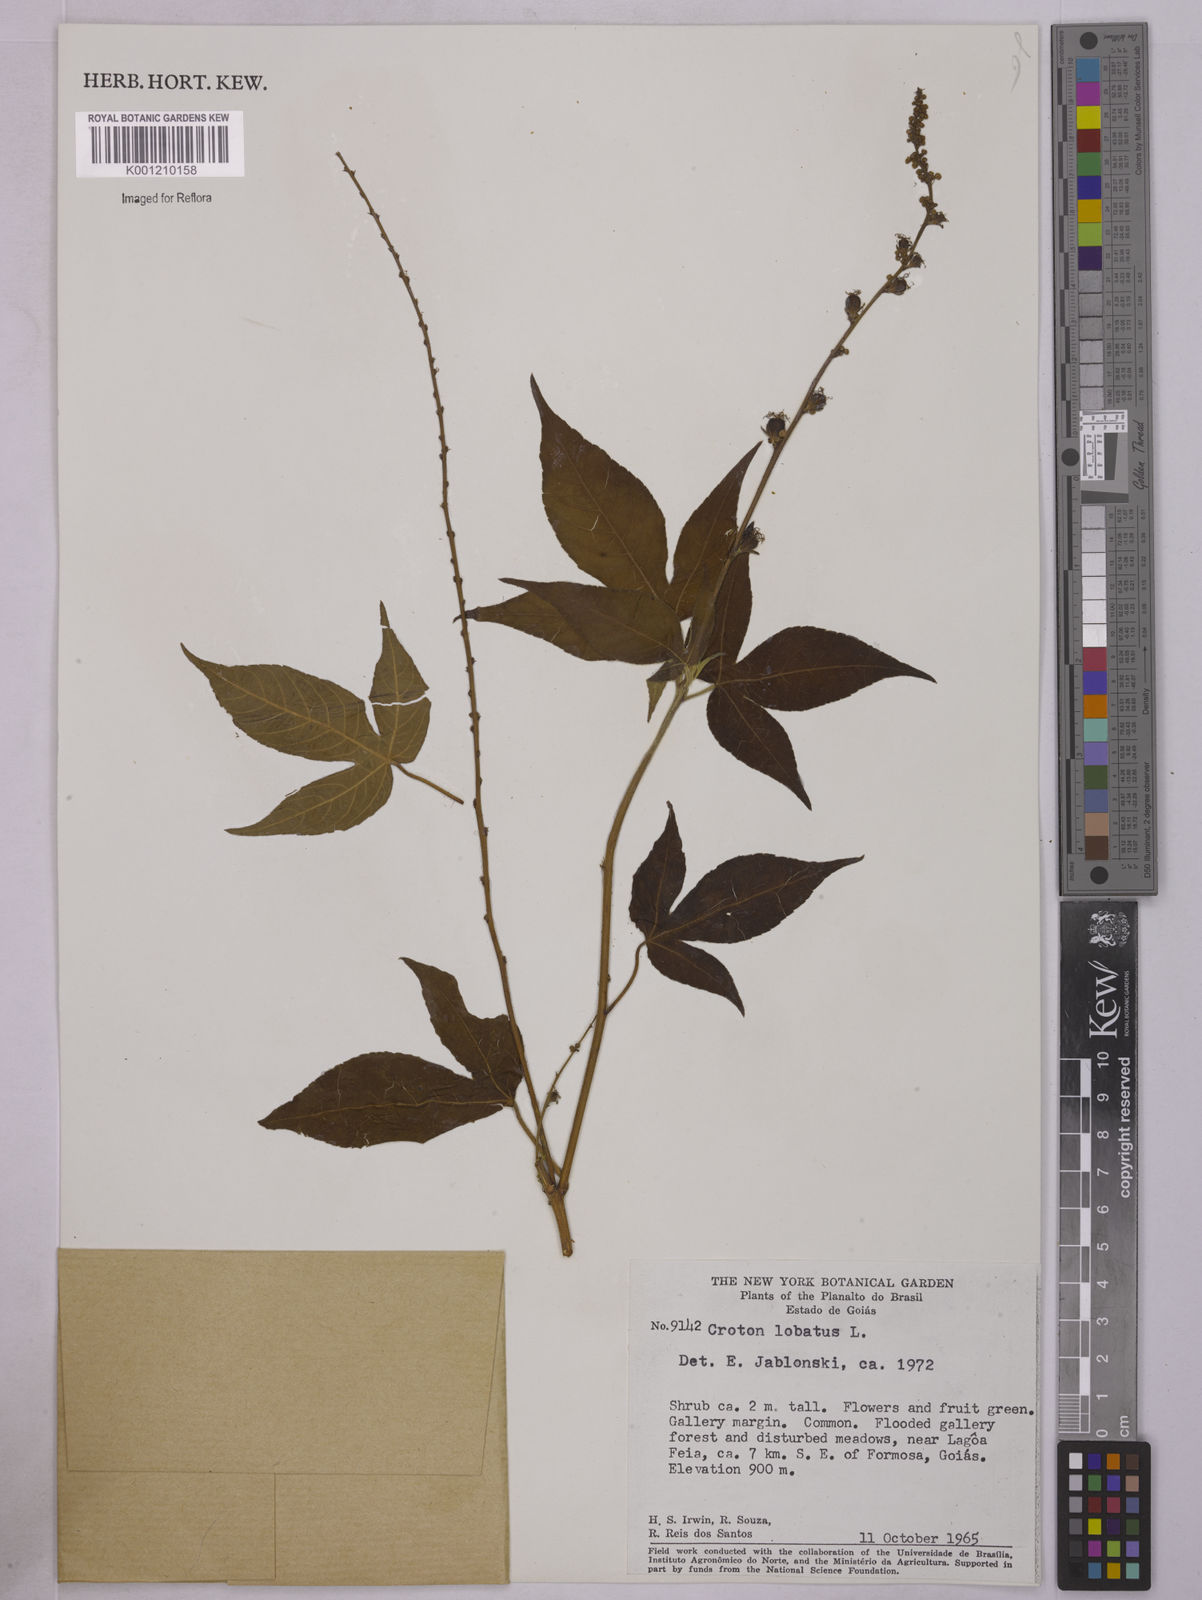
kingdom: Plantae
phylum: Tracheophyta
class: Magnoliopsida
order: Malpighiales
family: Euphorbiaceae
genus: Astraea
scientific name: Astraea lobata
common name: Lobed croton
